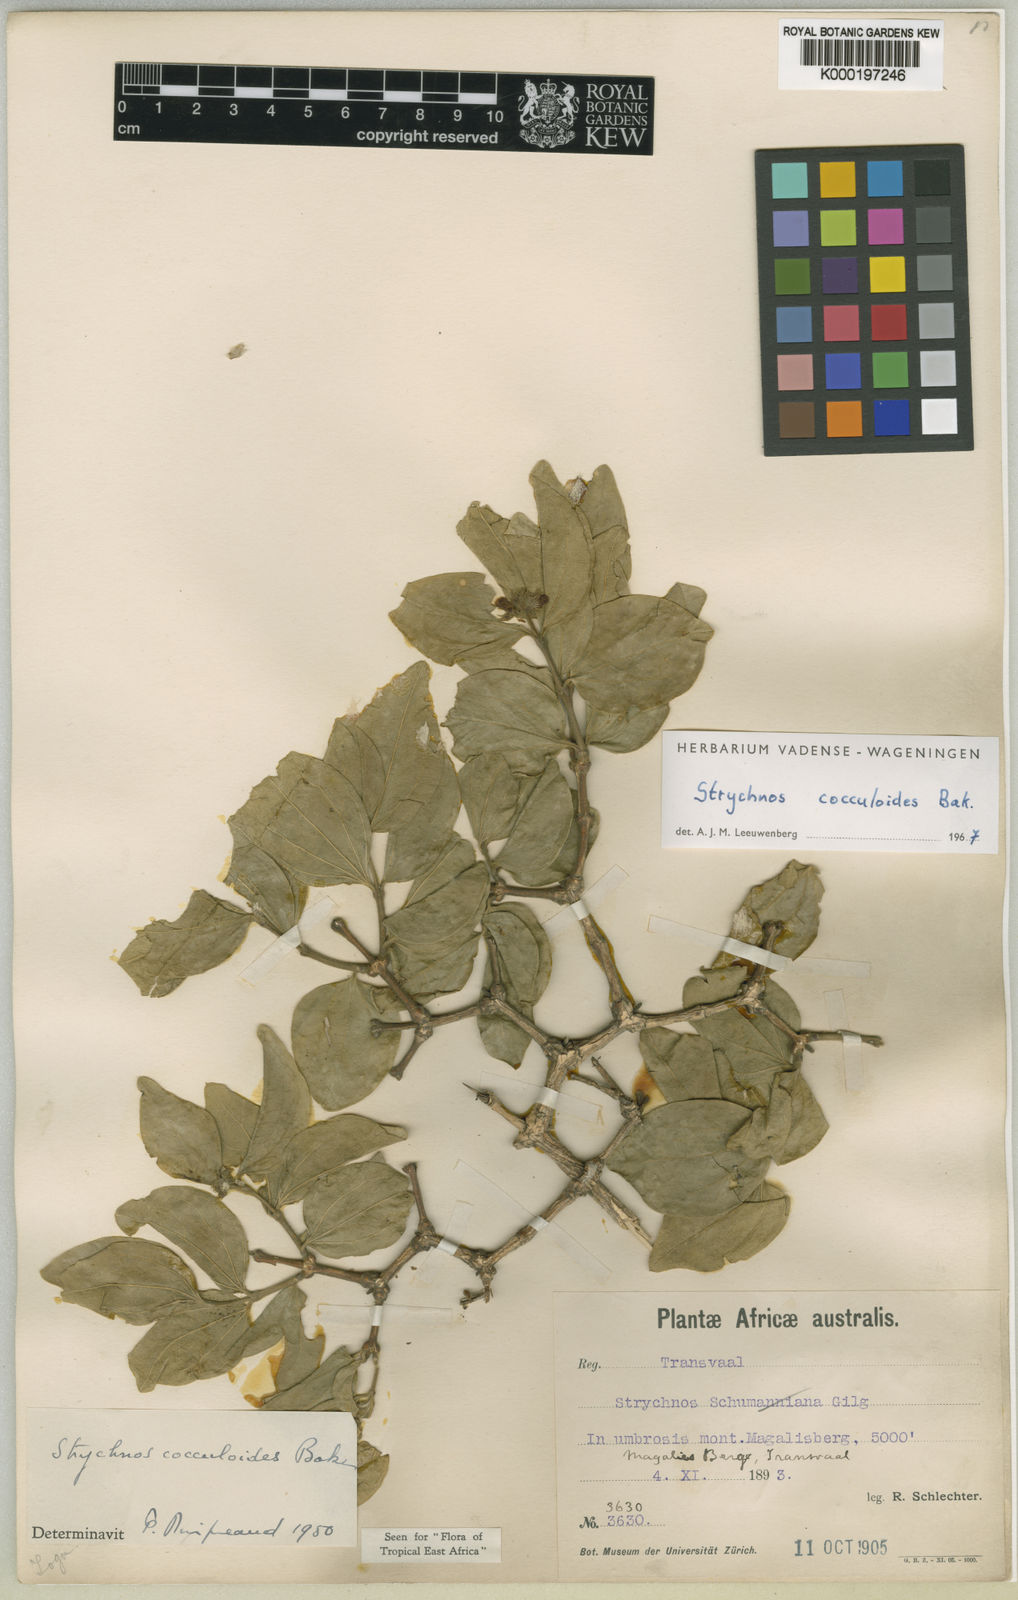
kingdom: Plantae
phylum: Tracheophyta
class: Magnoliopsida
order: Gentianales
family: Loganiaceae
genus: Strychnos
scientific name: Strychnos cocculoides
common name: Corky-bark monkey-orange
